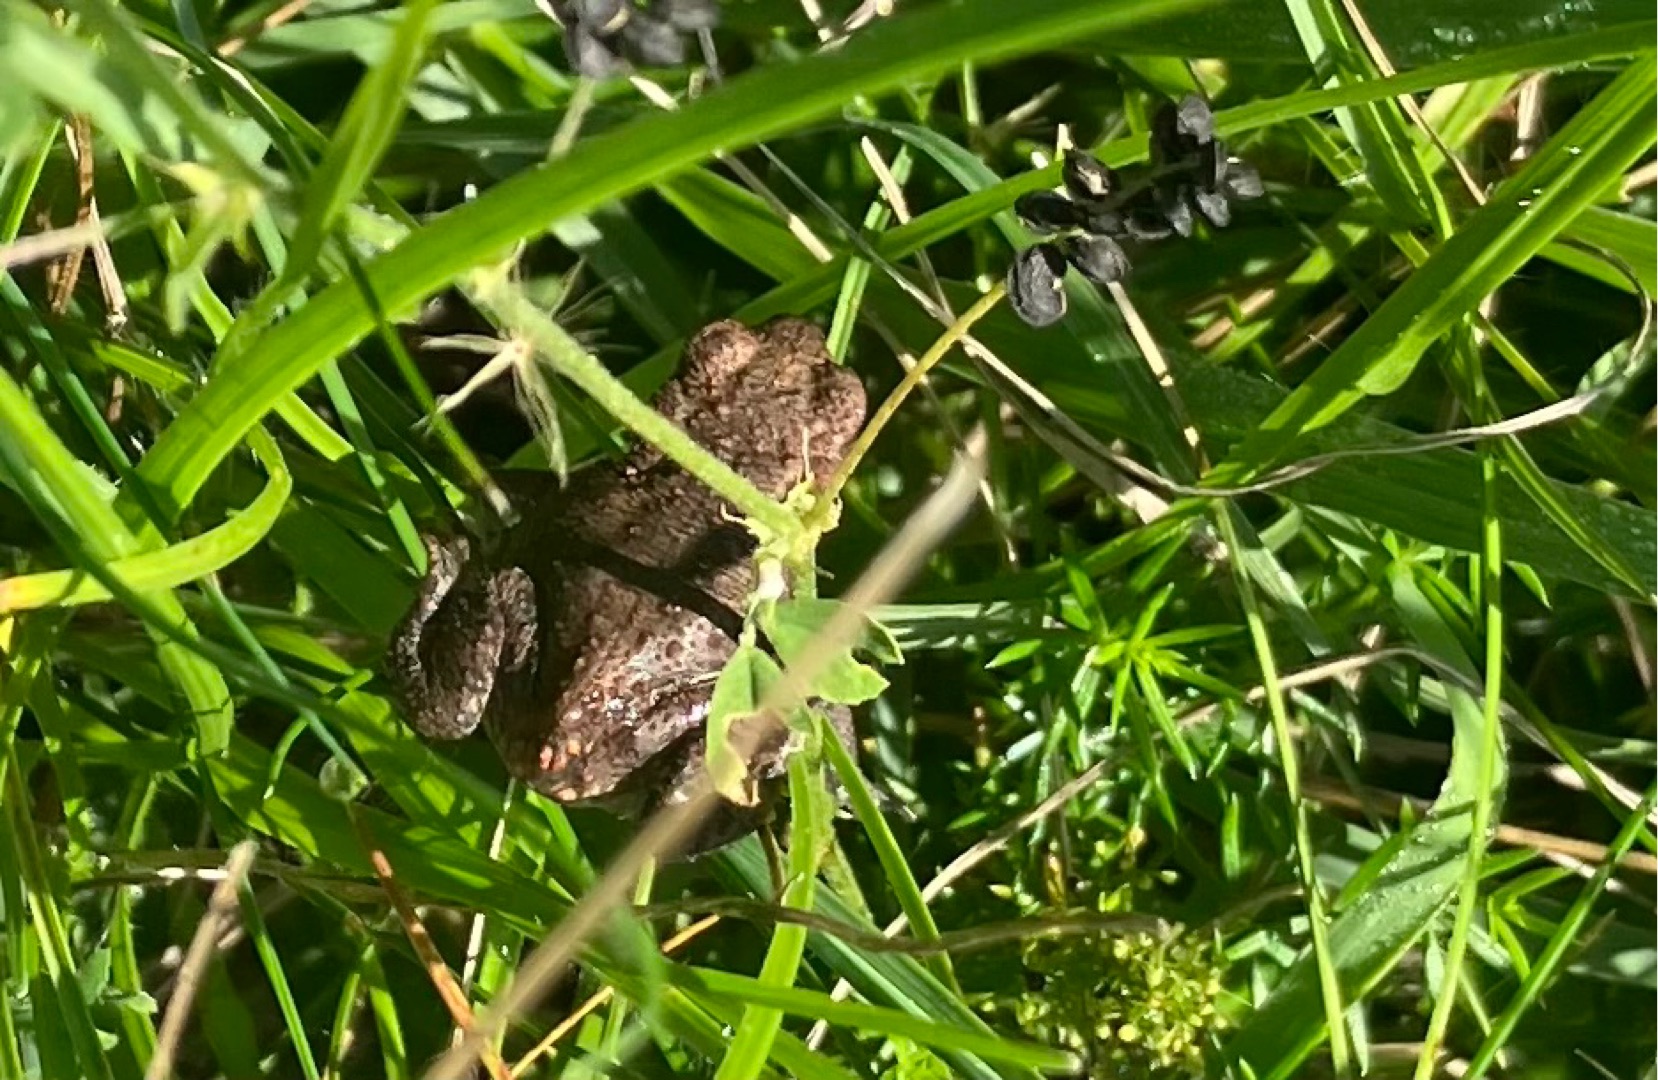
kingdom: Animalia
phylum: Chordata
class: Amphibia
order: Anura
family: Bufonidae
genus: Bufo
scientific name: Bufo bufo
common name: Skrubtudse
